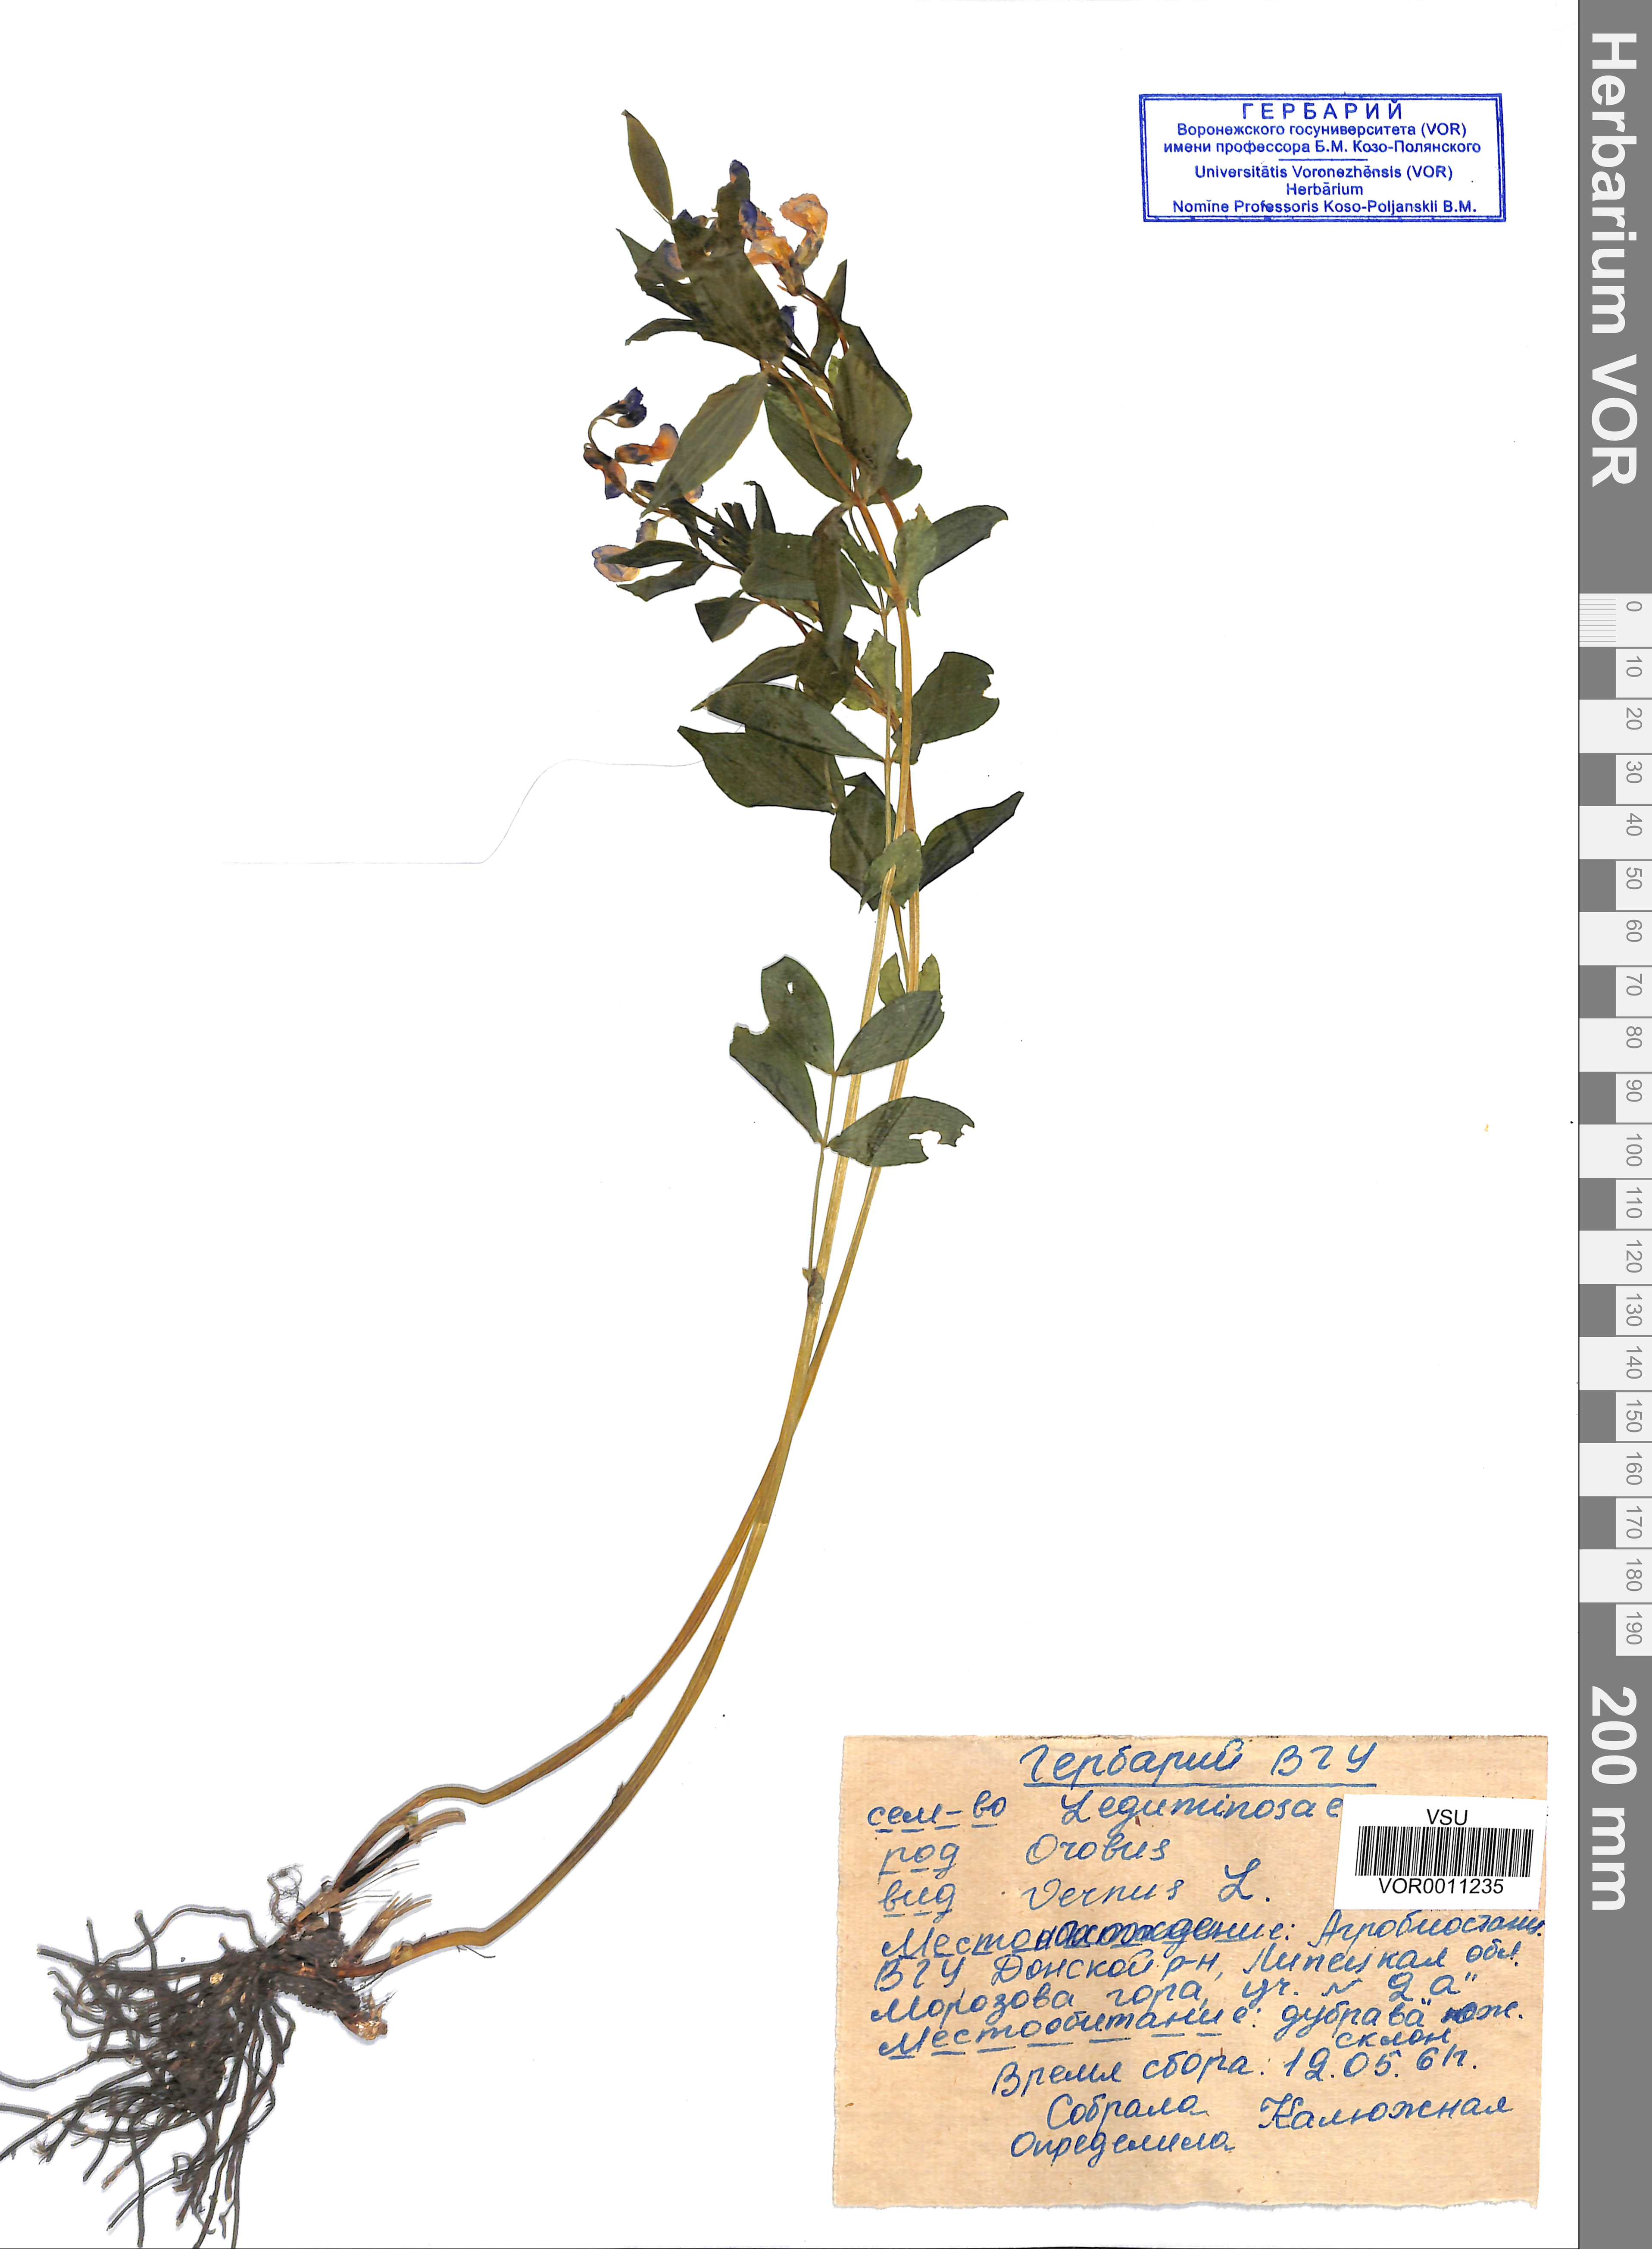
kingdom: Plantae
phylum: Tracheophyta
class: Magnoliopsida
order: Fabales
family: Fabaceae
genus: Lathyrus
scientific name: Lathyrus vernus
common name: Spring pea
